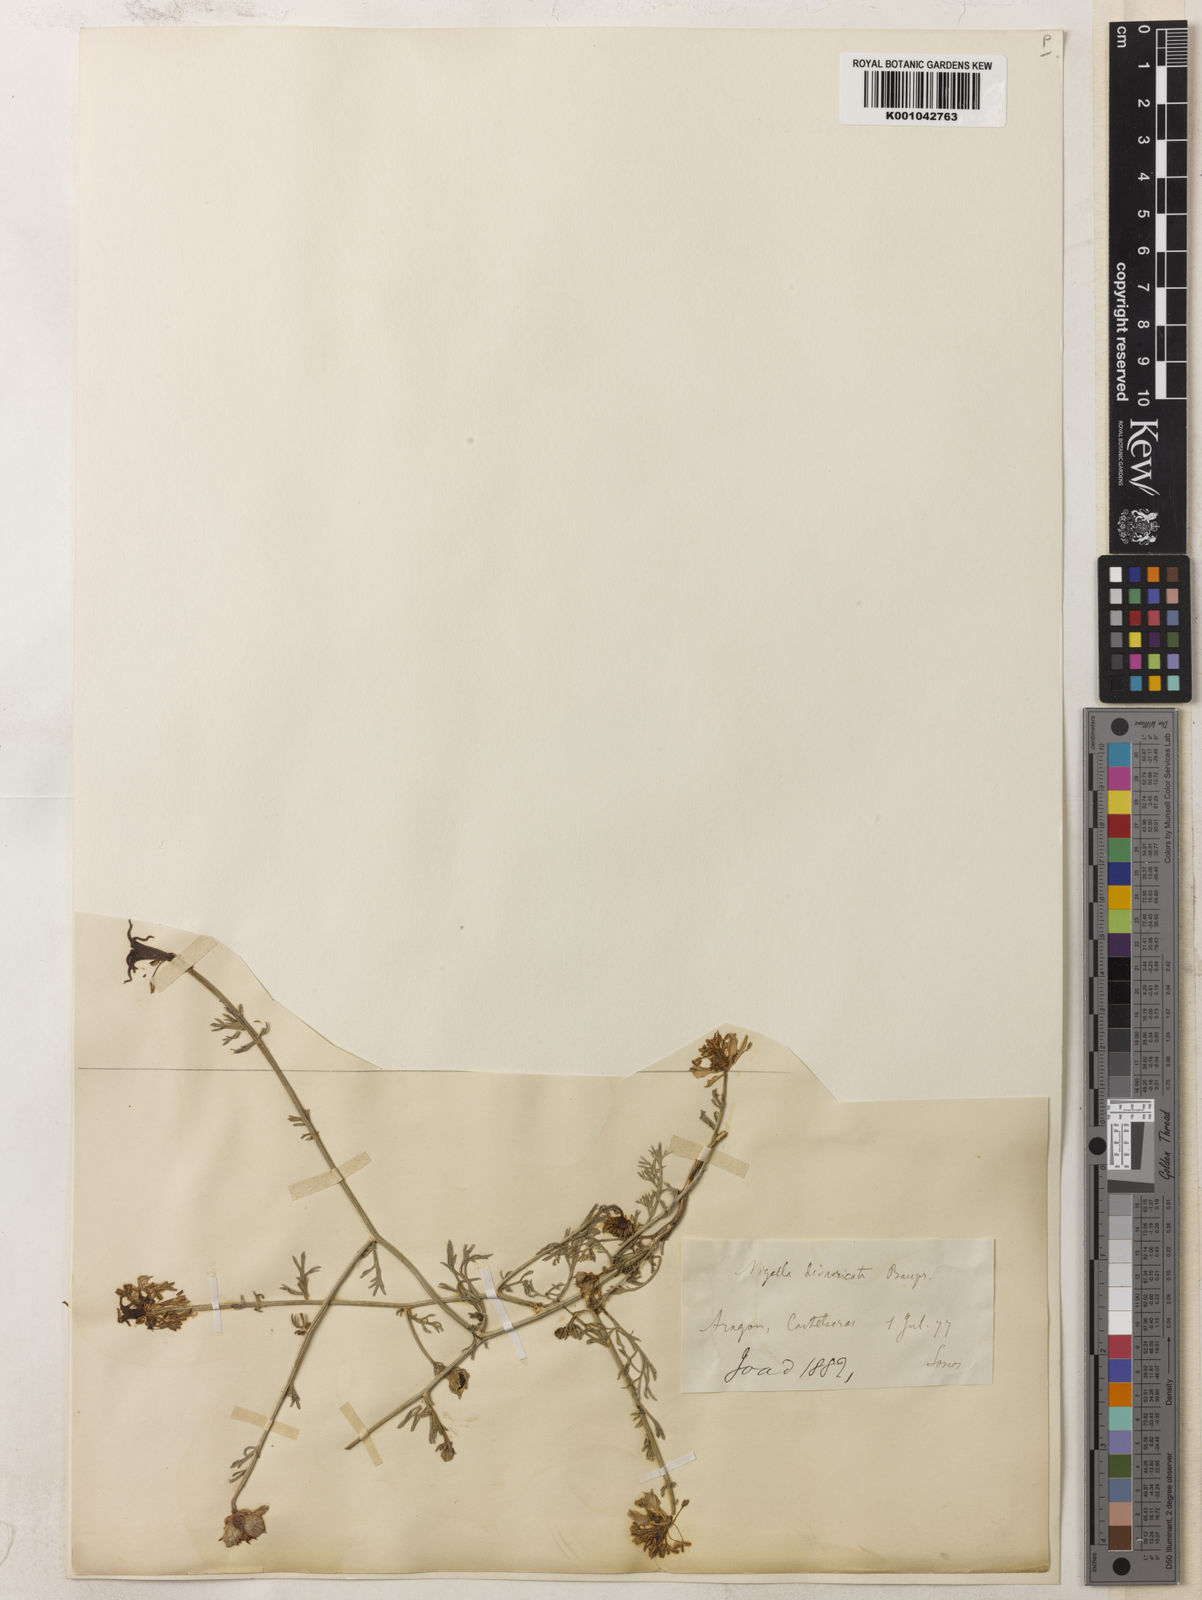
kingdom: Plantae
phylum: Tracheophyta
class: Magnoliopsida
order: Ranunculales
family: Ranunculaceae
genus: Nigella
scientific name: Nigella hispanica
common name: Fennel-flower
